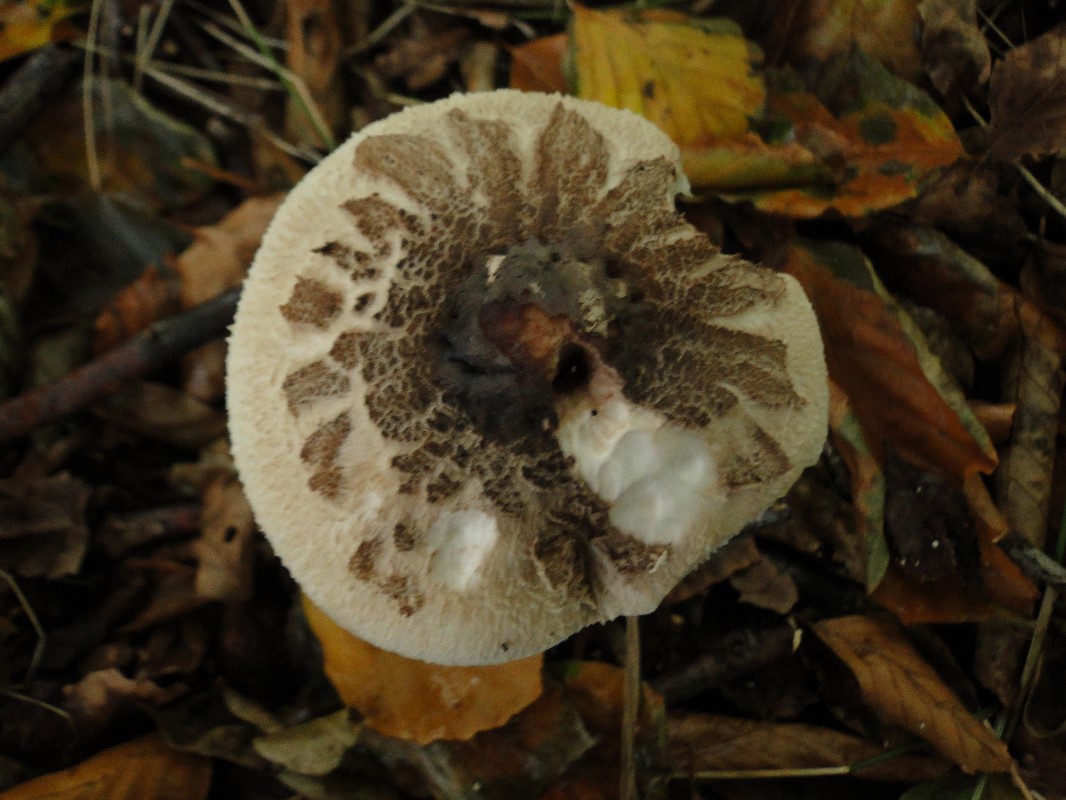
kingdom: Fungi
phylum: Basidiomycota
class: Agaricomycetes
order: Agaricales
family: Agaricaceae
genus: Macrolepiota
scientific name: Macrolepiota
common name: kæmpeparasolhat
